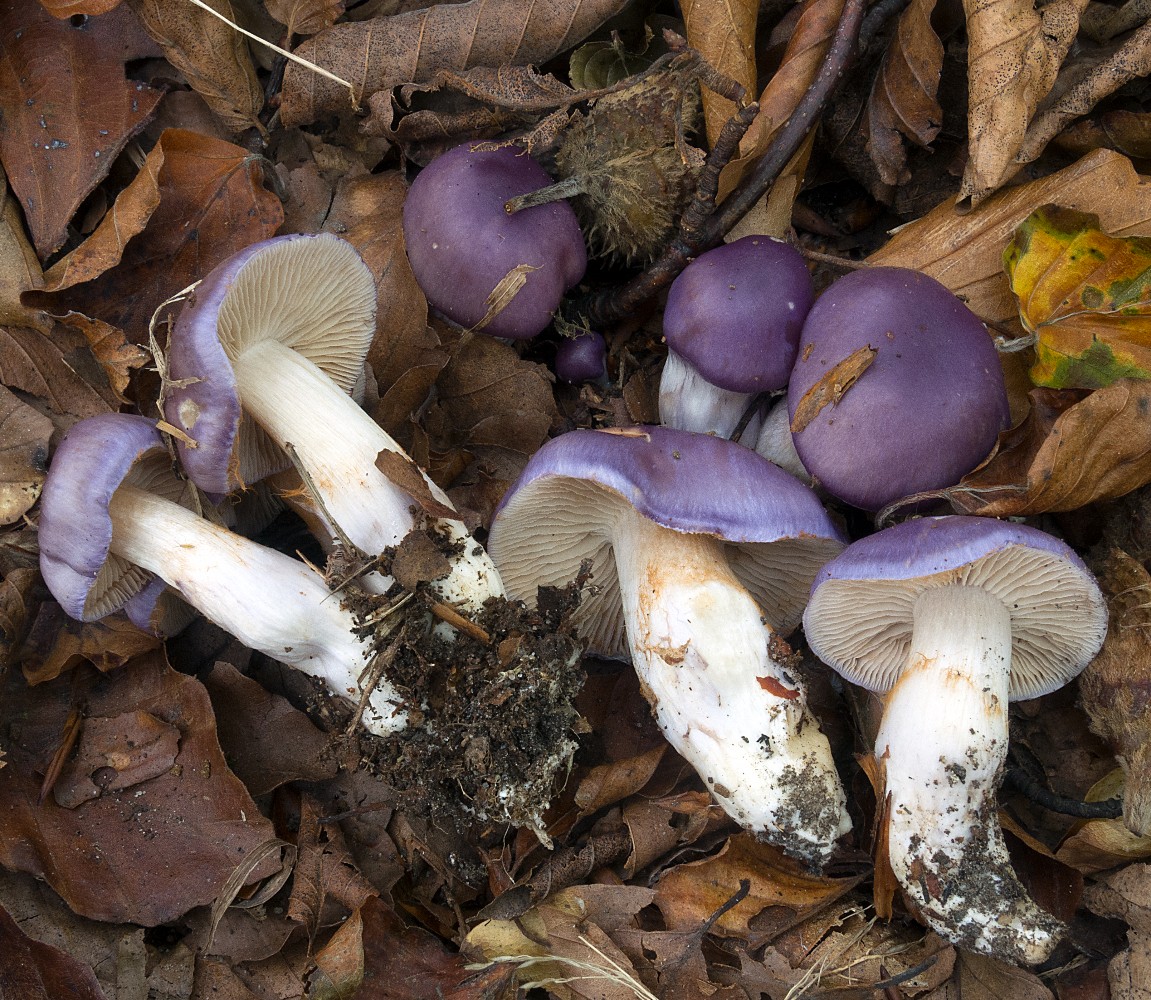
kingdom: Fungi
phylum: Basidiomycota
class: Agaricomycetes
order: Agaricales
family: Cortinariaceae
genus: Thaxterogaster
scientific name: Thaxterogaster croceocoeruleus
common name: blågullig slørhat
